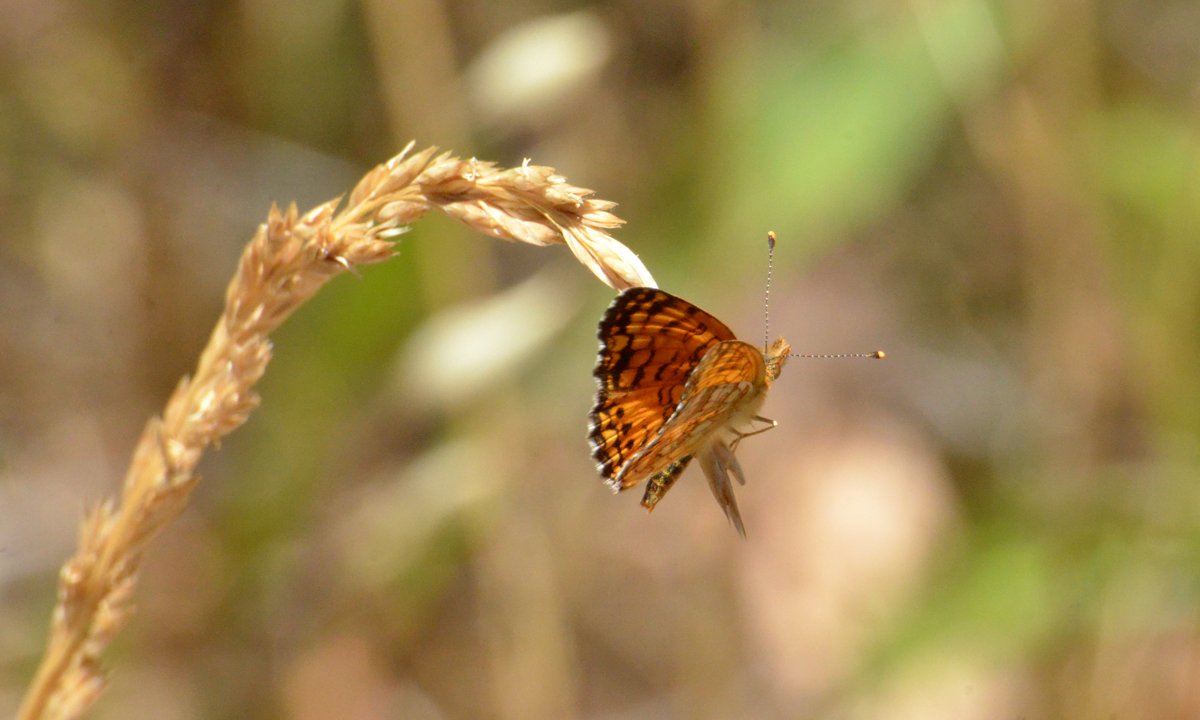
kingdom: Animalia
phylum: Arthropoda
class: Insecta
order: Lepidoptera
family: Nymphalidae
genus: Eresia
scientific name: Eresia aveyrona
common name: Mylitta Crescent
